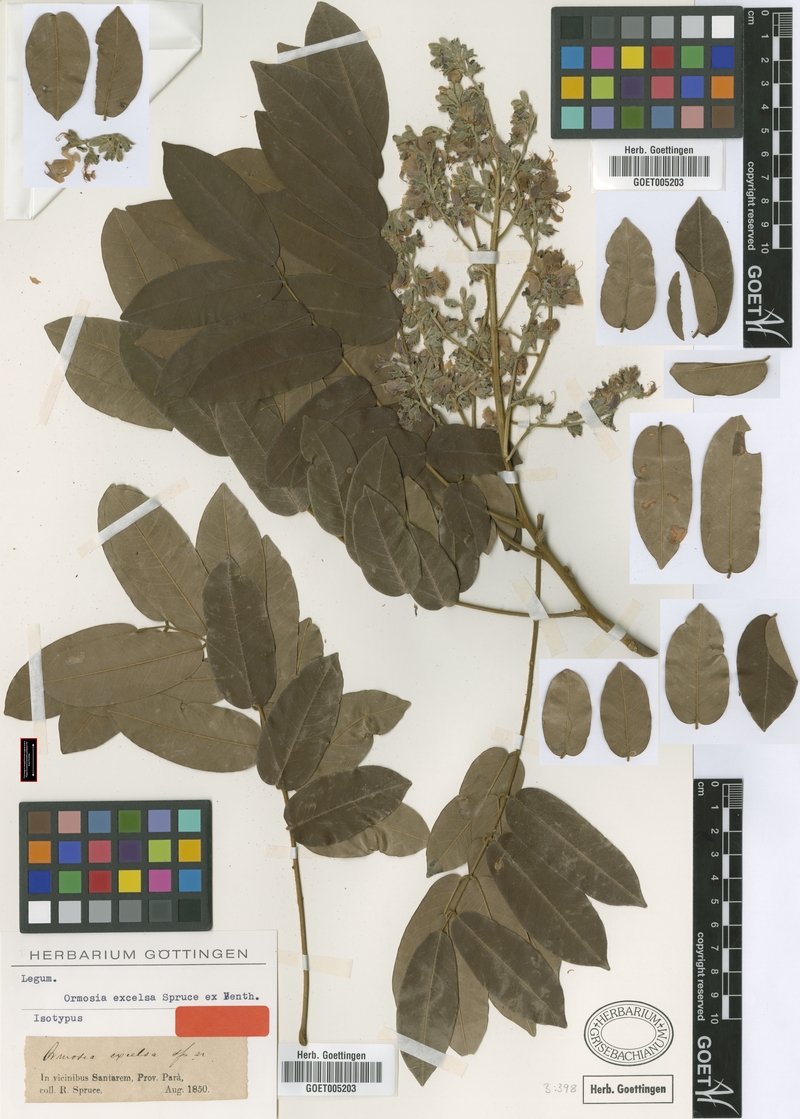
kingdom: Plantae
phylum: Tracheophyta
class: Magnoliopsida
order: Fabales
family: Fabaceae
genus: Ormosia
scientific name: Ormosia excelsa
